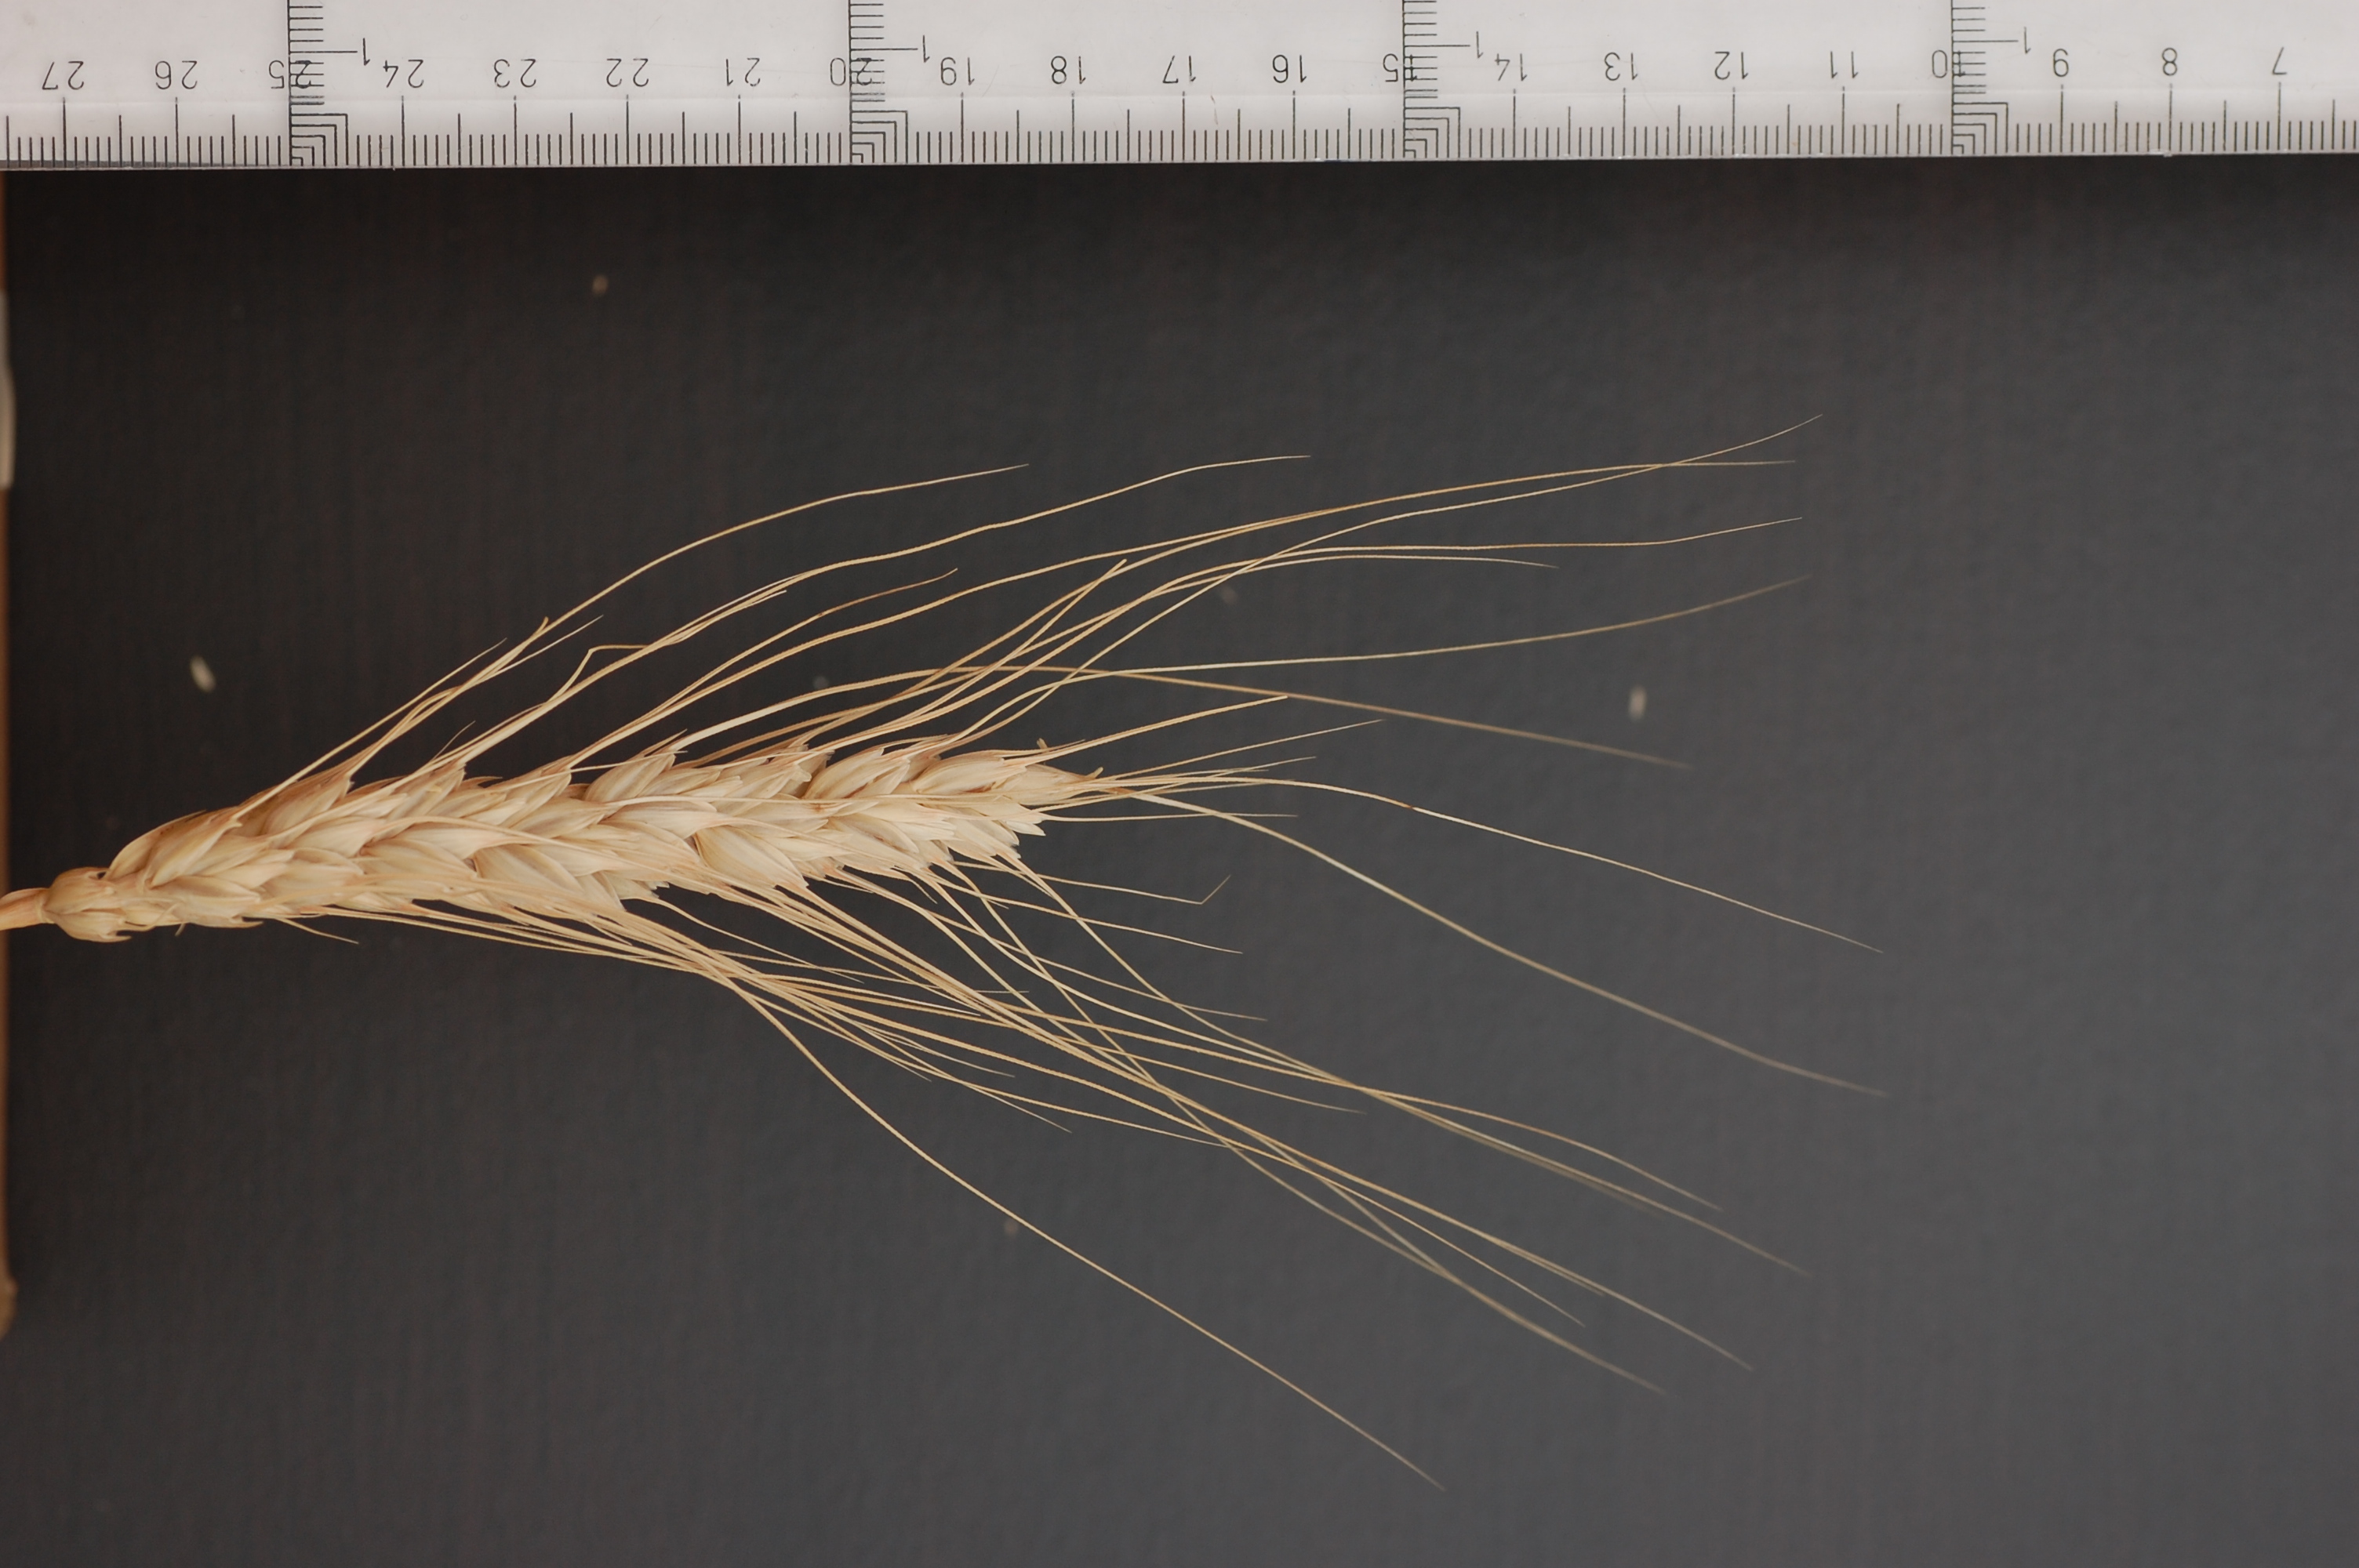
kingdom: Plantae
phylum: Tracheophyta
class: Liliopsida
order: Poales
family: Poaceae
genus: Triticum
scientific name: Triticum aestivum
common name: Common wheat
